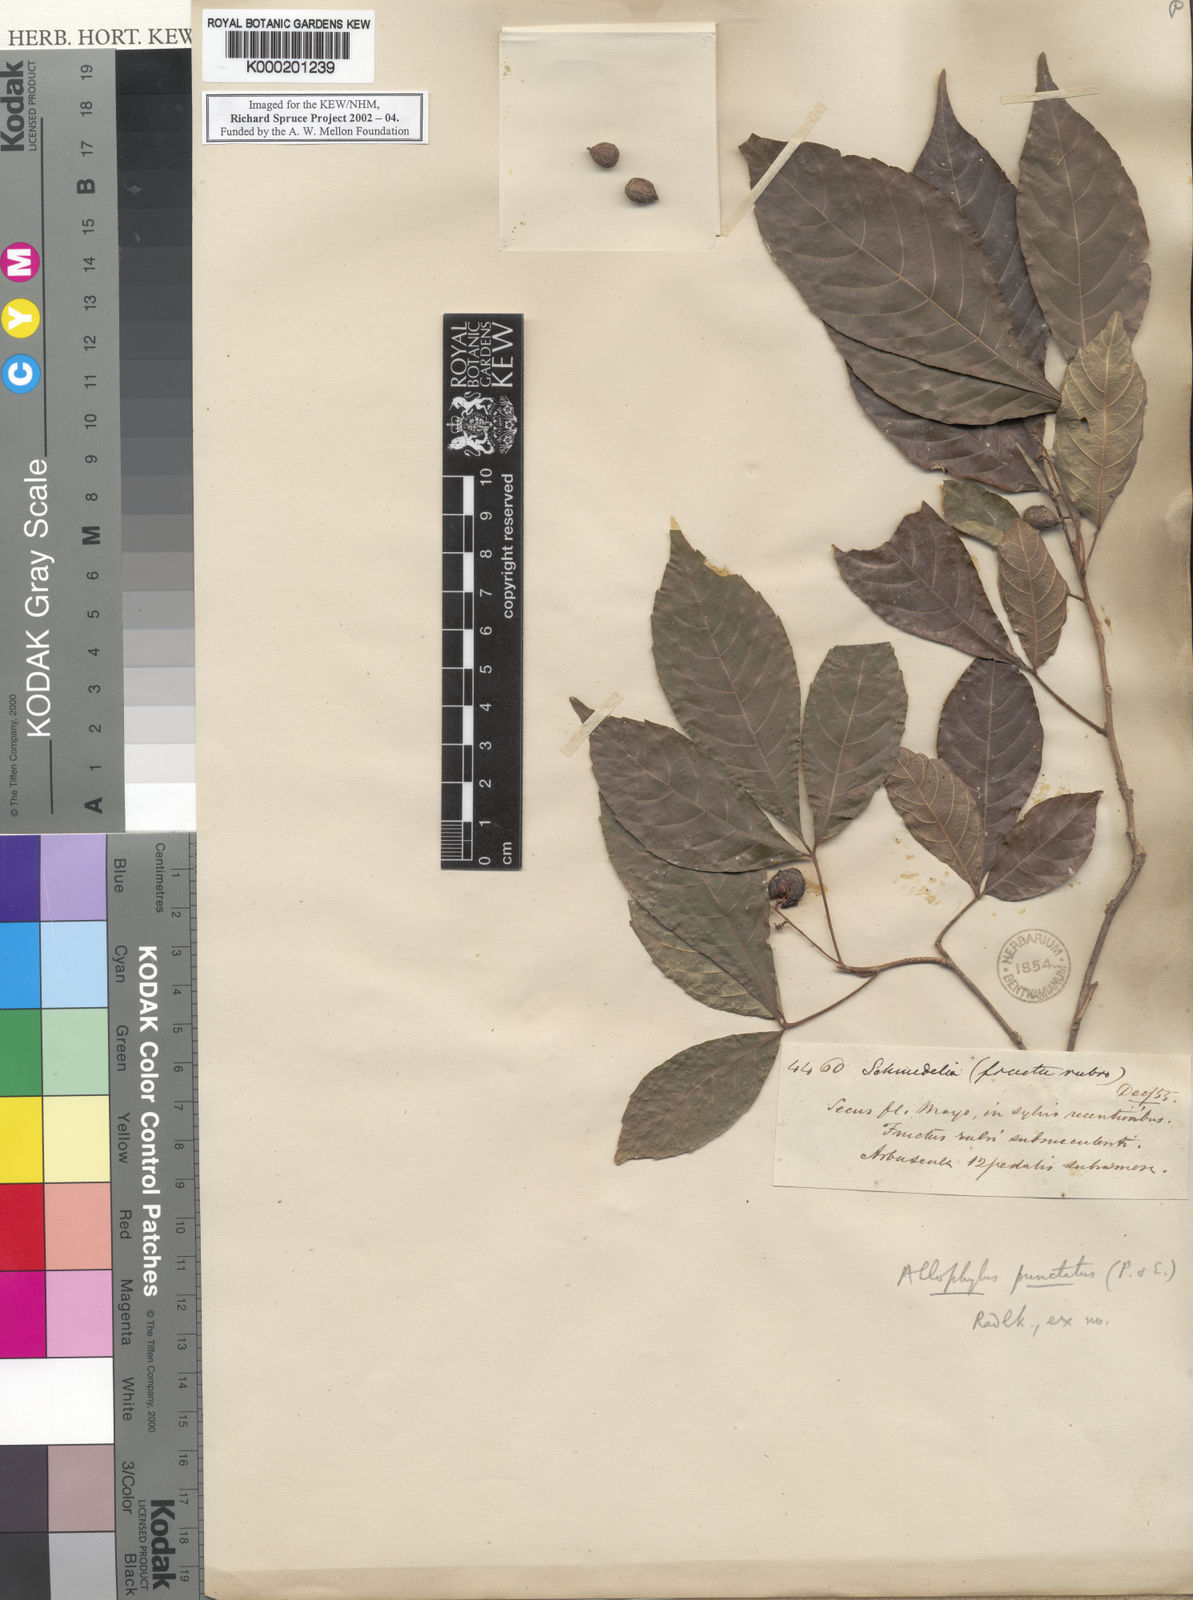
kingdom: Plantae
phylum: Tracheophyta
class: Magnoliopsida
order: Sapindales
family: Sapindaceae
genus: Allophylus
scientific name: Allophylus punctatus
